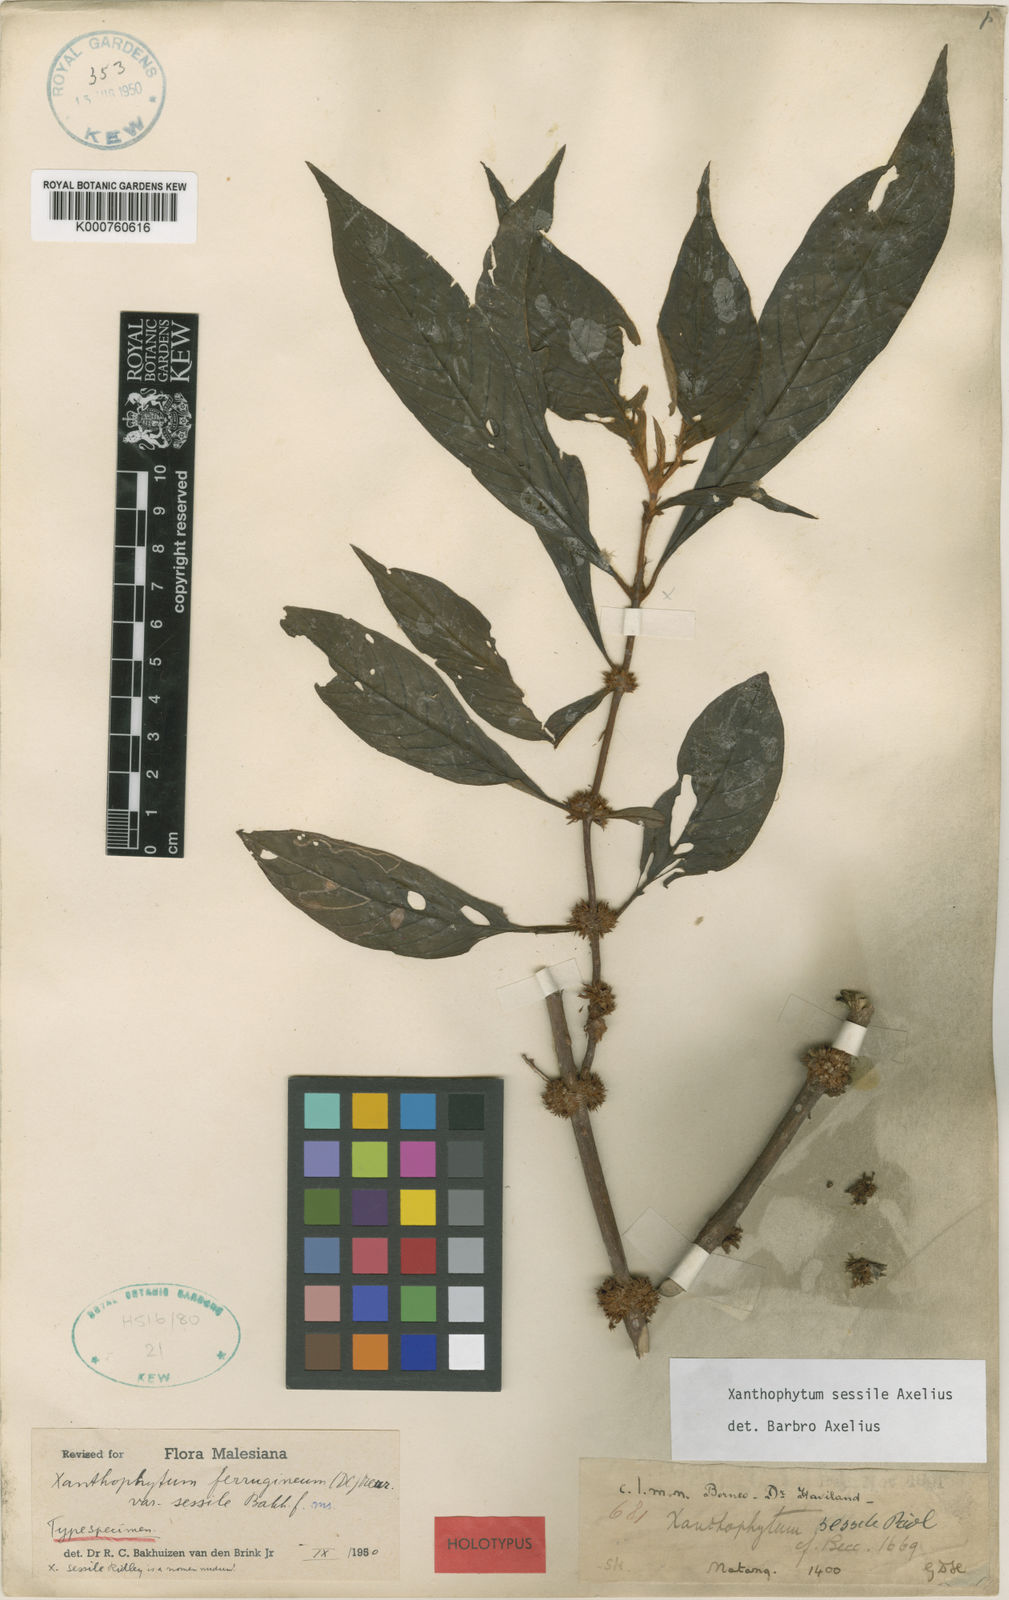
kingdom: Plantae
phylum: Tracheophyta
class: Magnoliopsida
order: Gentianales
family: Rubiaceae
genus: Xanthophytum
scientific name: Xanthophytum sessile
